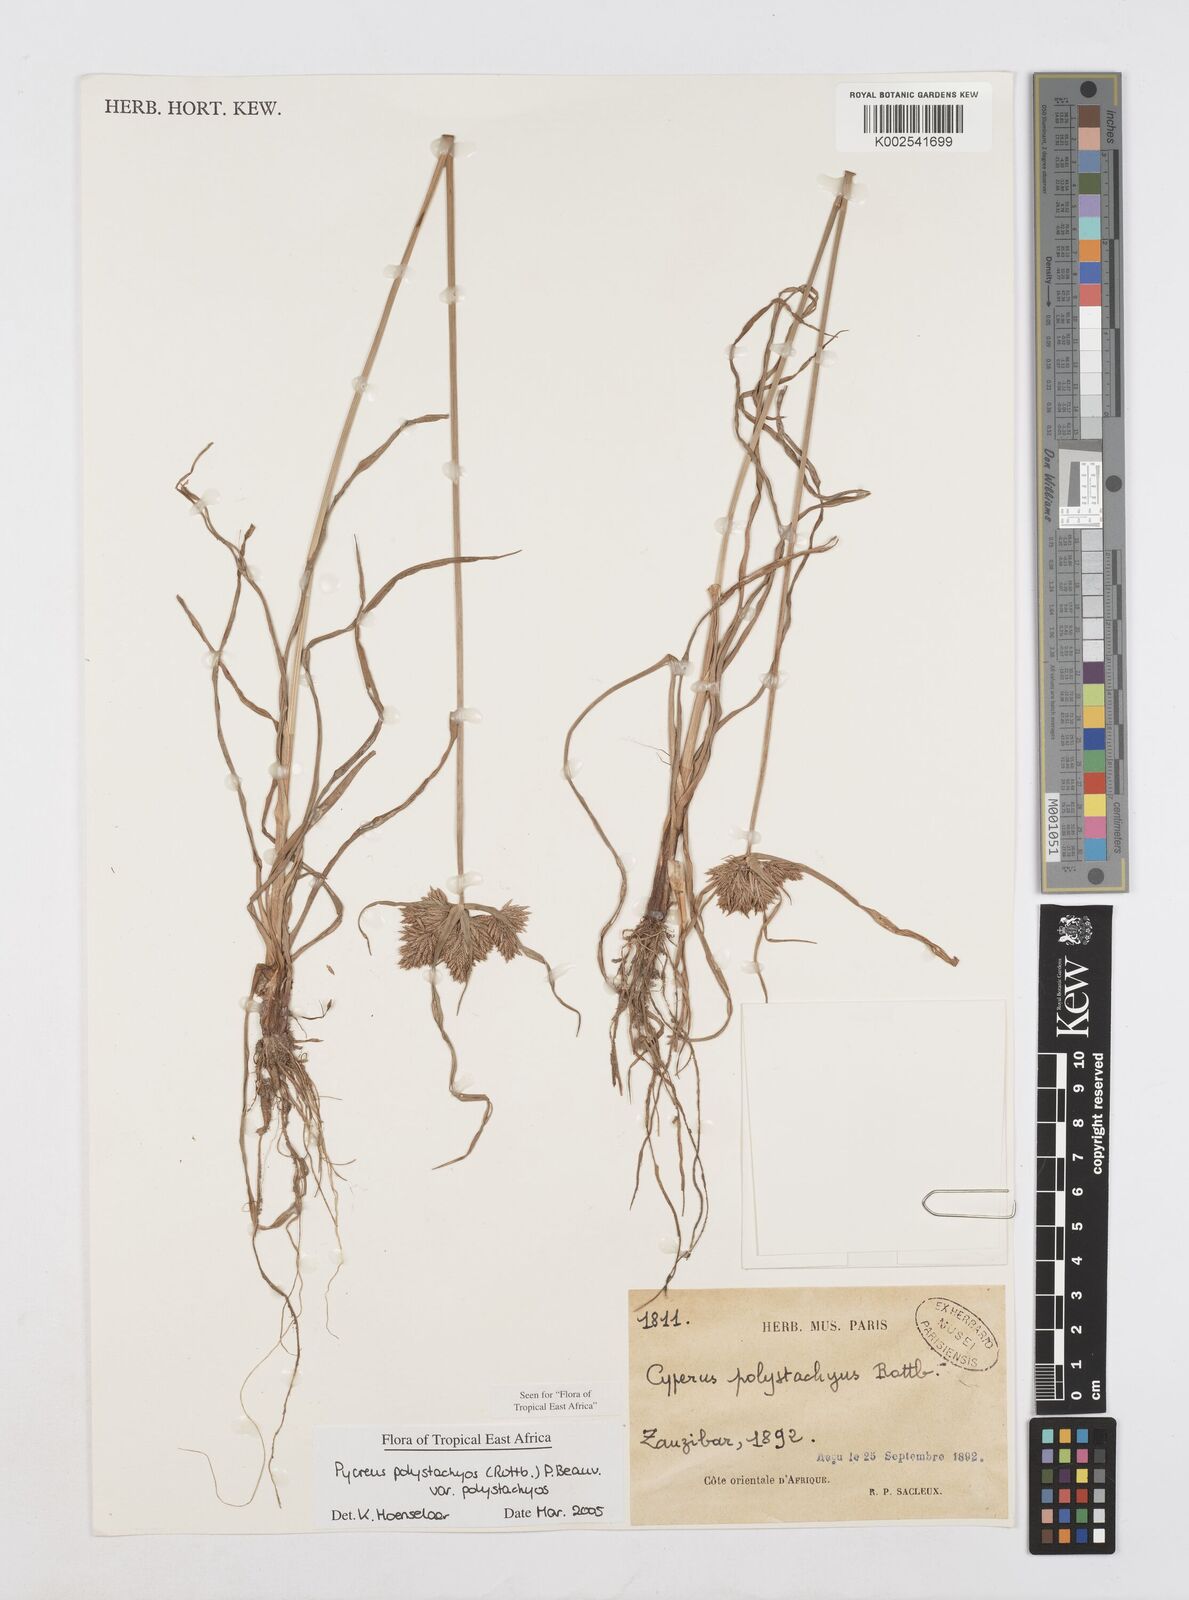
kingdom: Plantae
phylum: Tracheophyta
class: Liliopsida
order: Poales
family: Cyperaceae
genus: Cyperus
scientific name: Cyperus polystachyos
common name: Bunchy flat sedge
